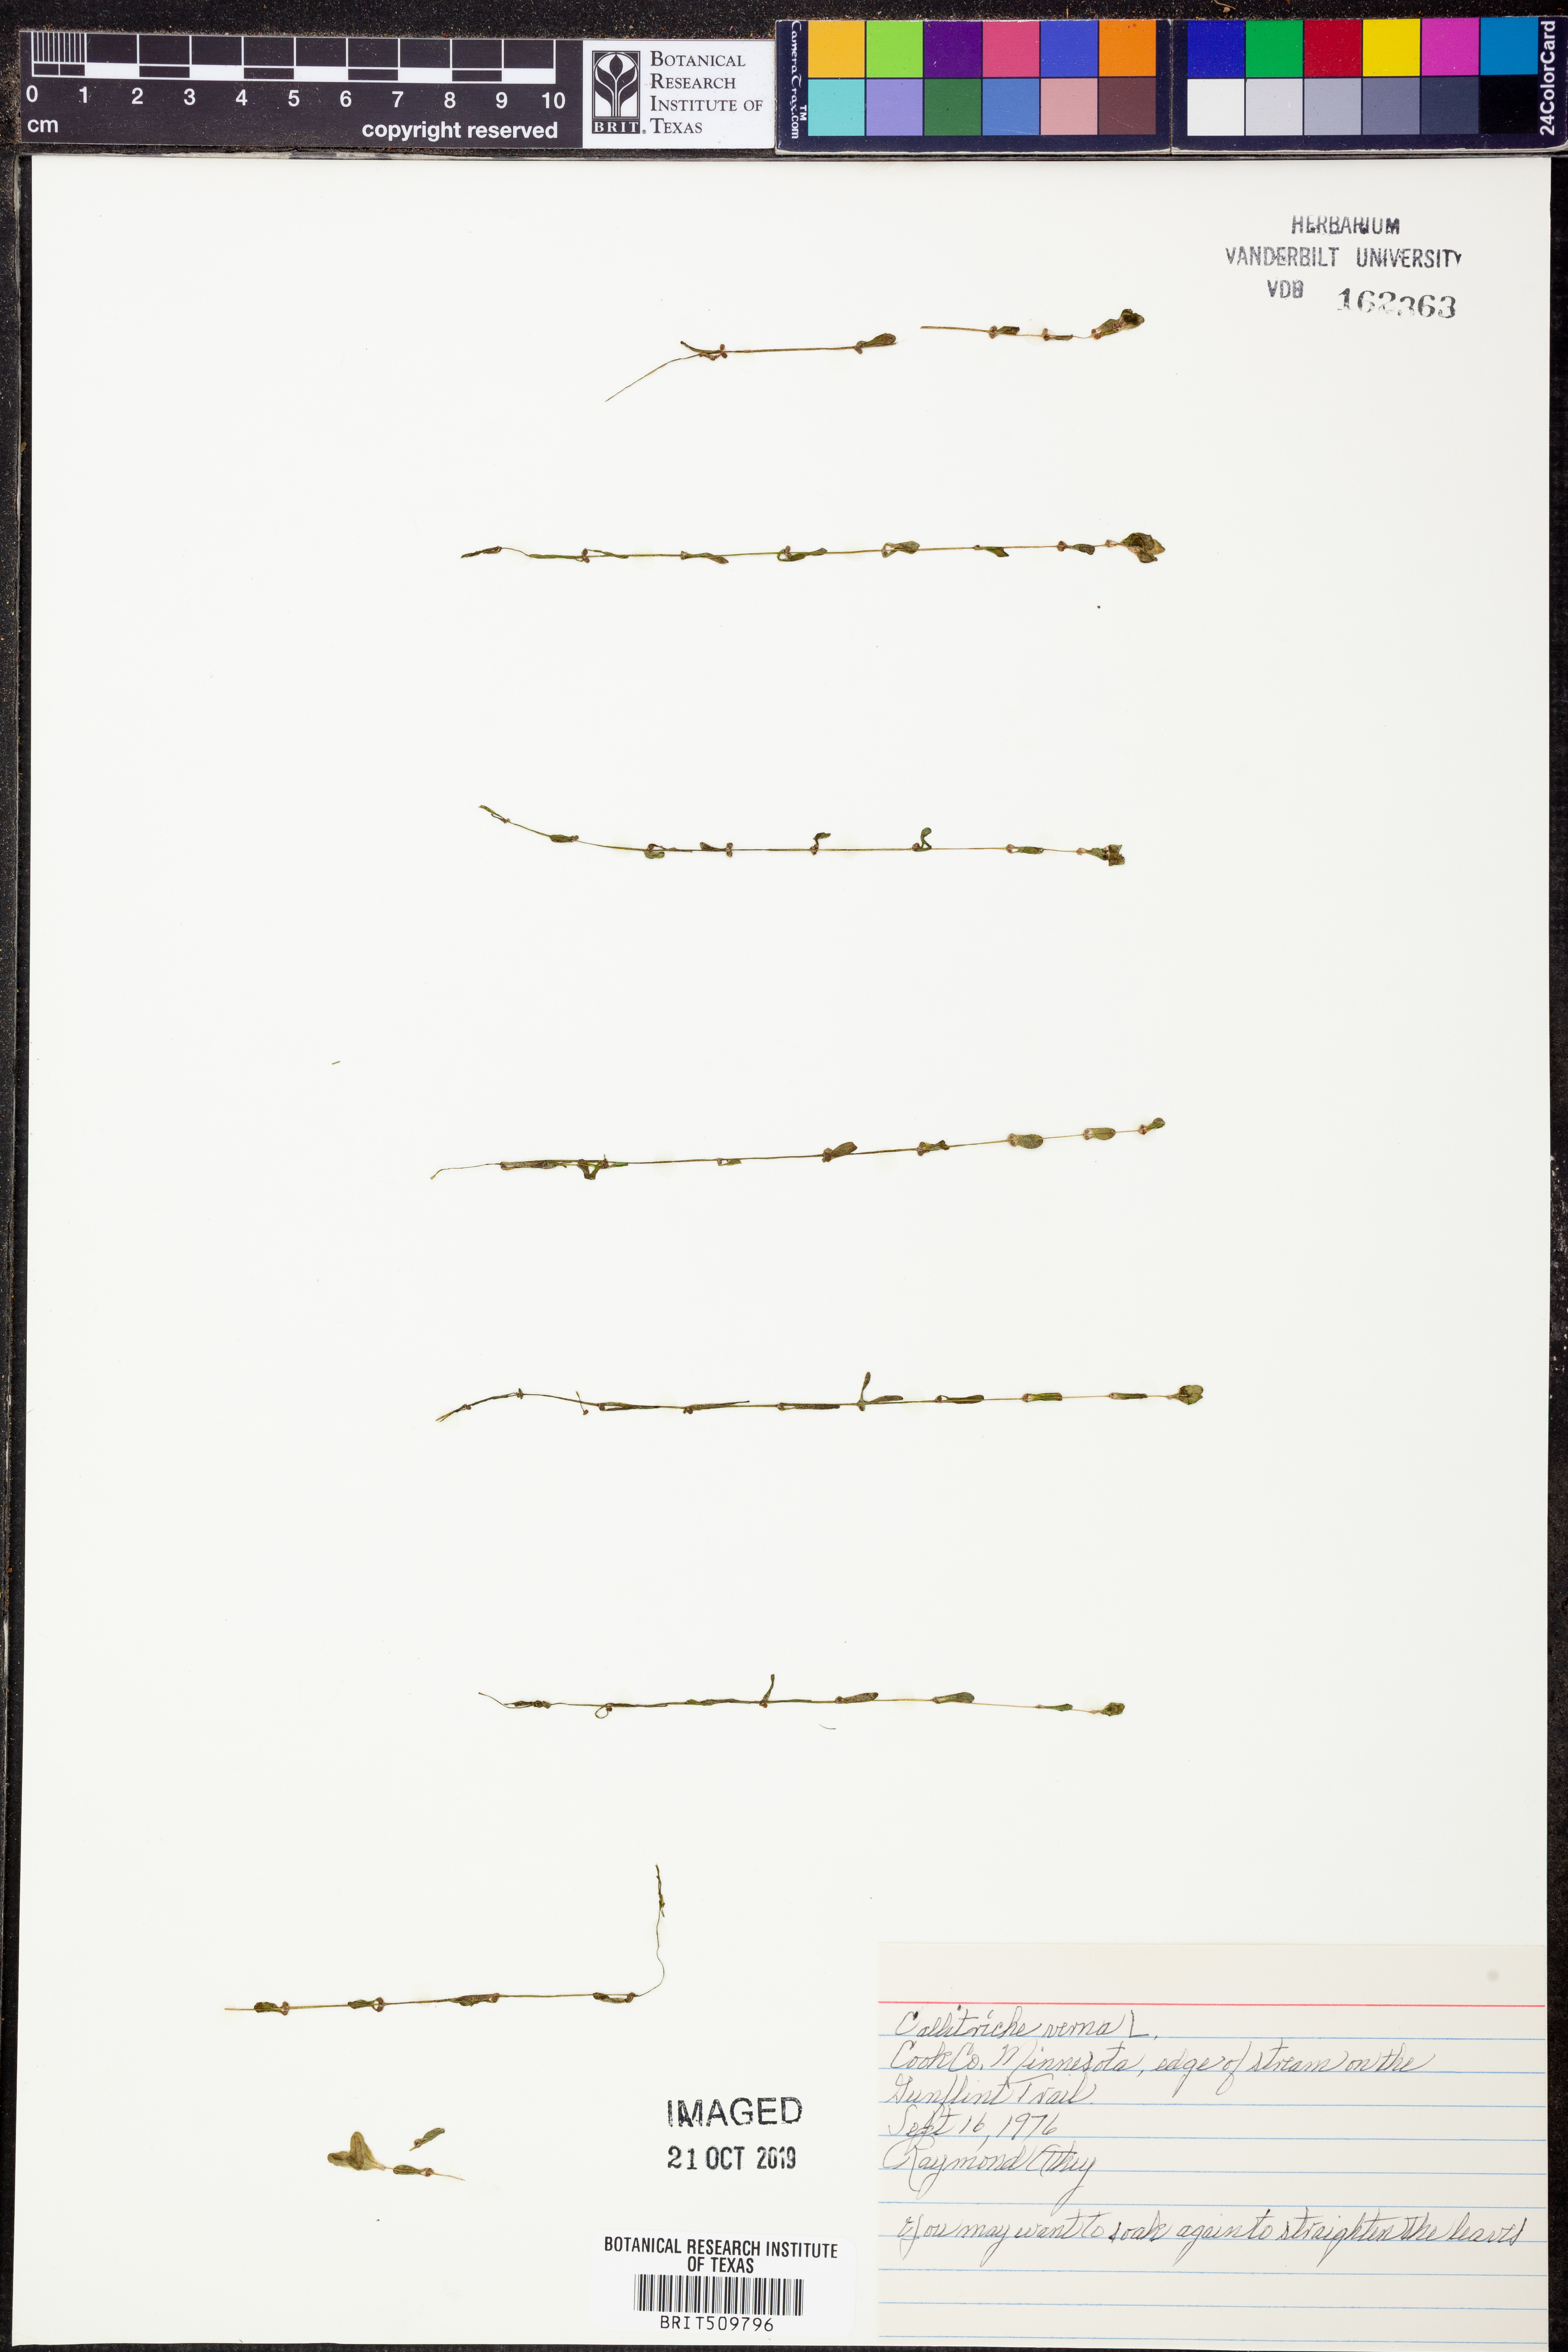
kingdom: Plantae
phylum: Tracheophyta
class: Magnoliopsida
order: Lamiales
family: Plantaginaceae
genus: Callitriche
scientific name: Callitriche palustris
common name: Spring water-starwort
